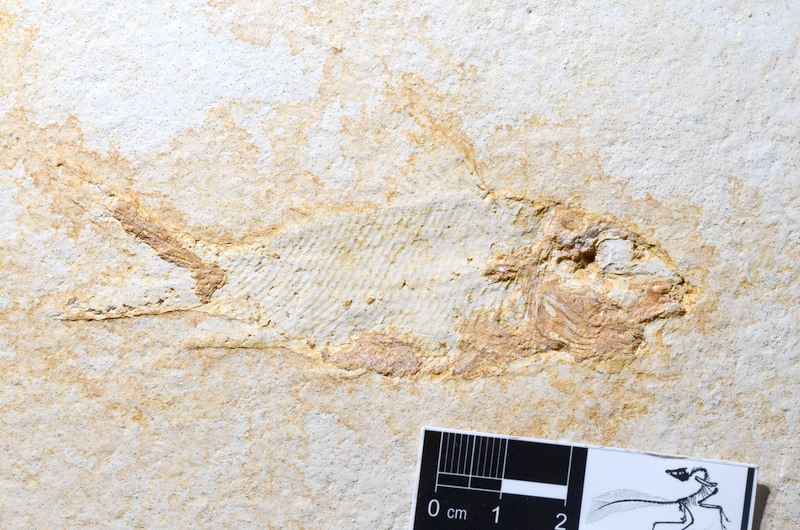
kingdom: Animalia
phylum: Chordata
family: Macrosemiidae
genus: Propterus
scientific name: Propterus microstomus
